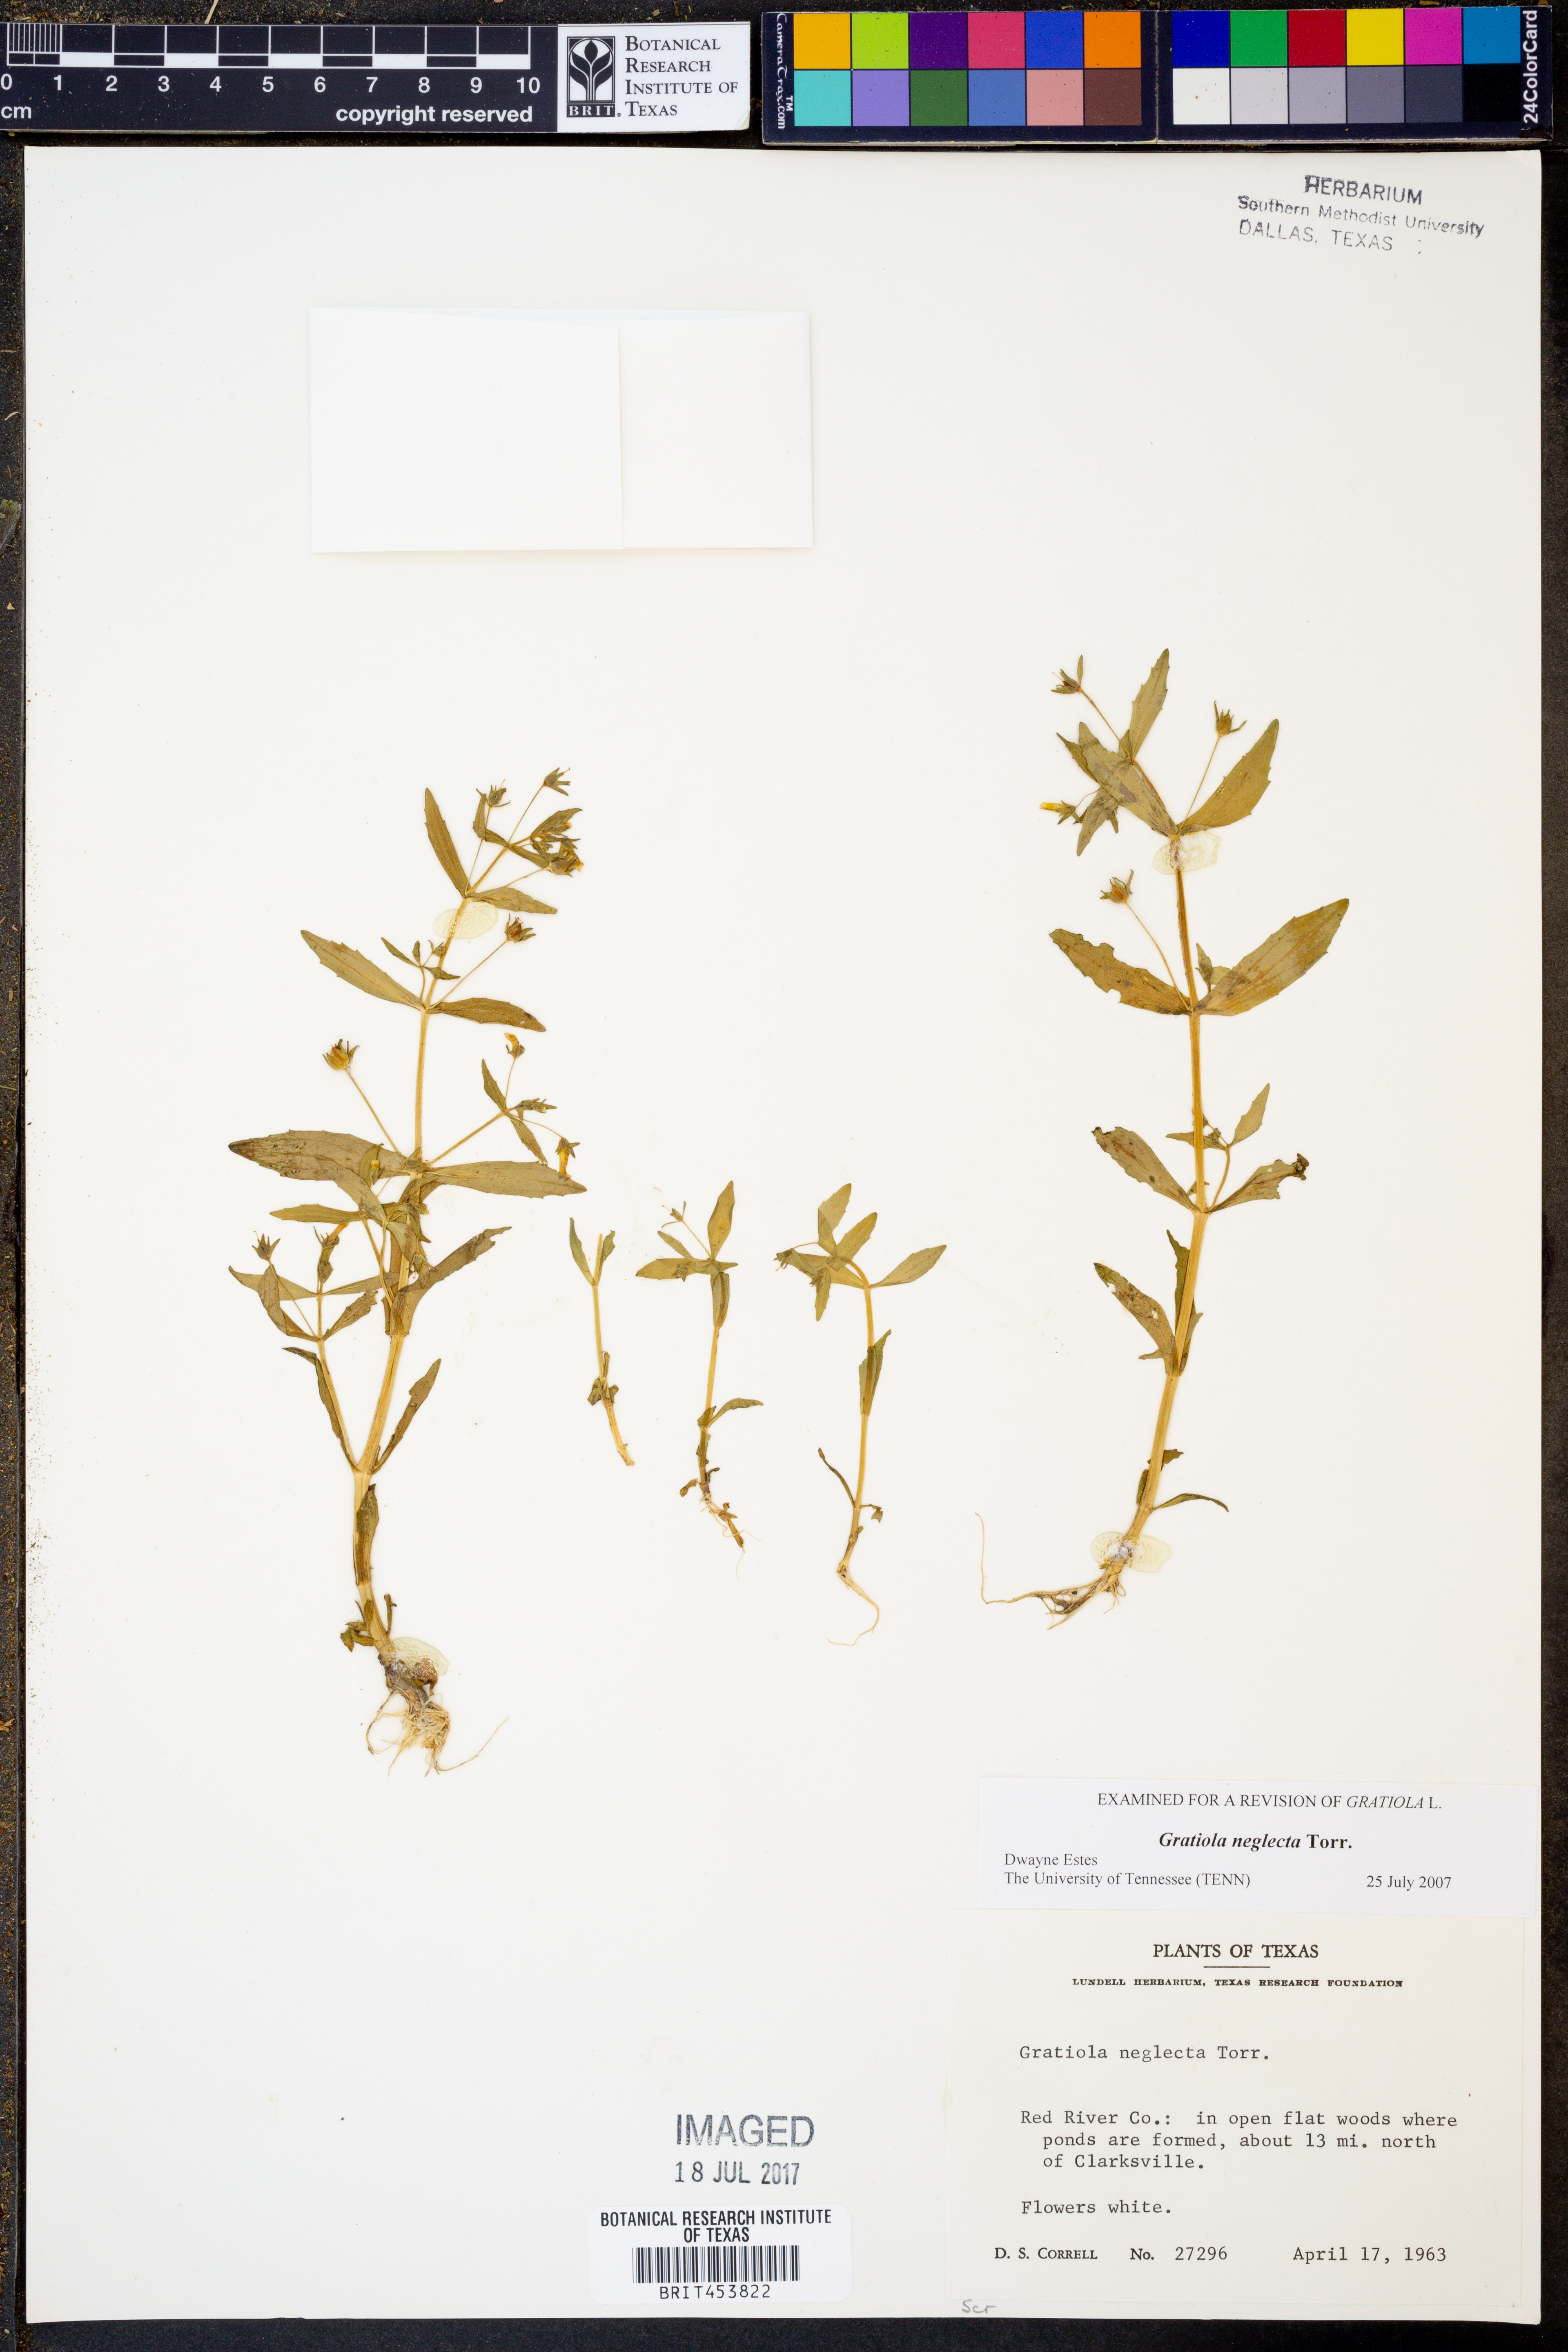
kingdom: Plantae
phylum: Tracheophyta
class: Magnoliopsida
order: Lamiales
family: Plantaginaceae
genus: Gratiola
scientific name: Gratiola neglecta
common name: American hedge-hyssop
